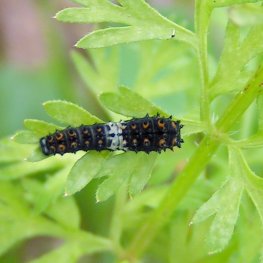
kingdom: Animalia
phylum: Arthropoda
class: Insecta
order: Lepidoptera
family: Papilionidae
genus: Papilio
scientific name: Papilio polyxenes
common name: Black Swallowtail
